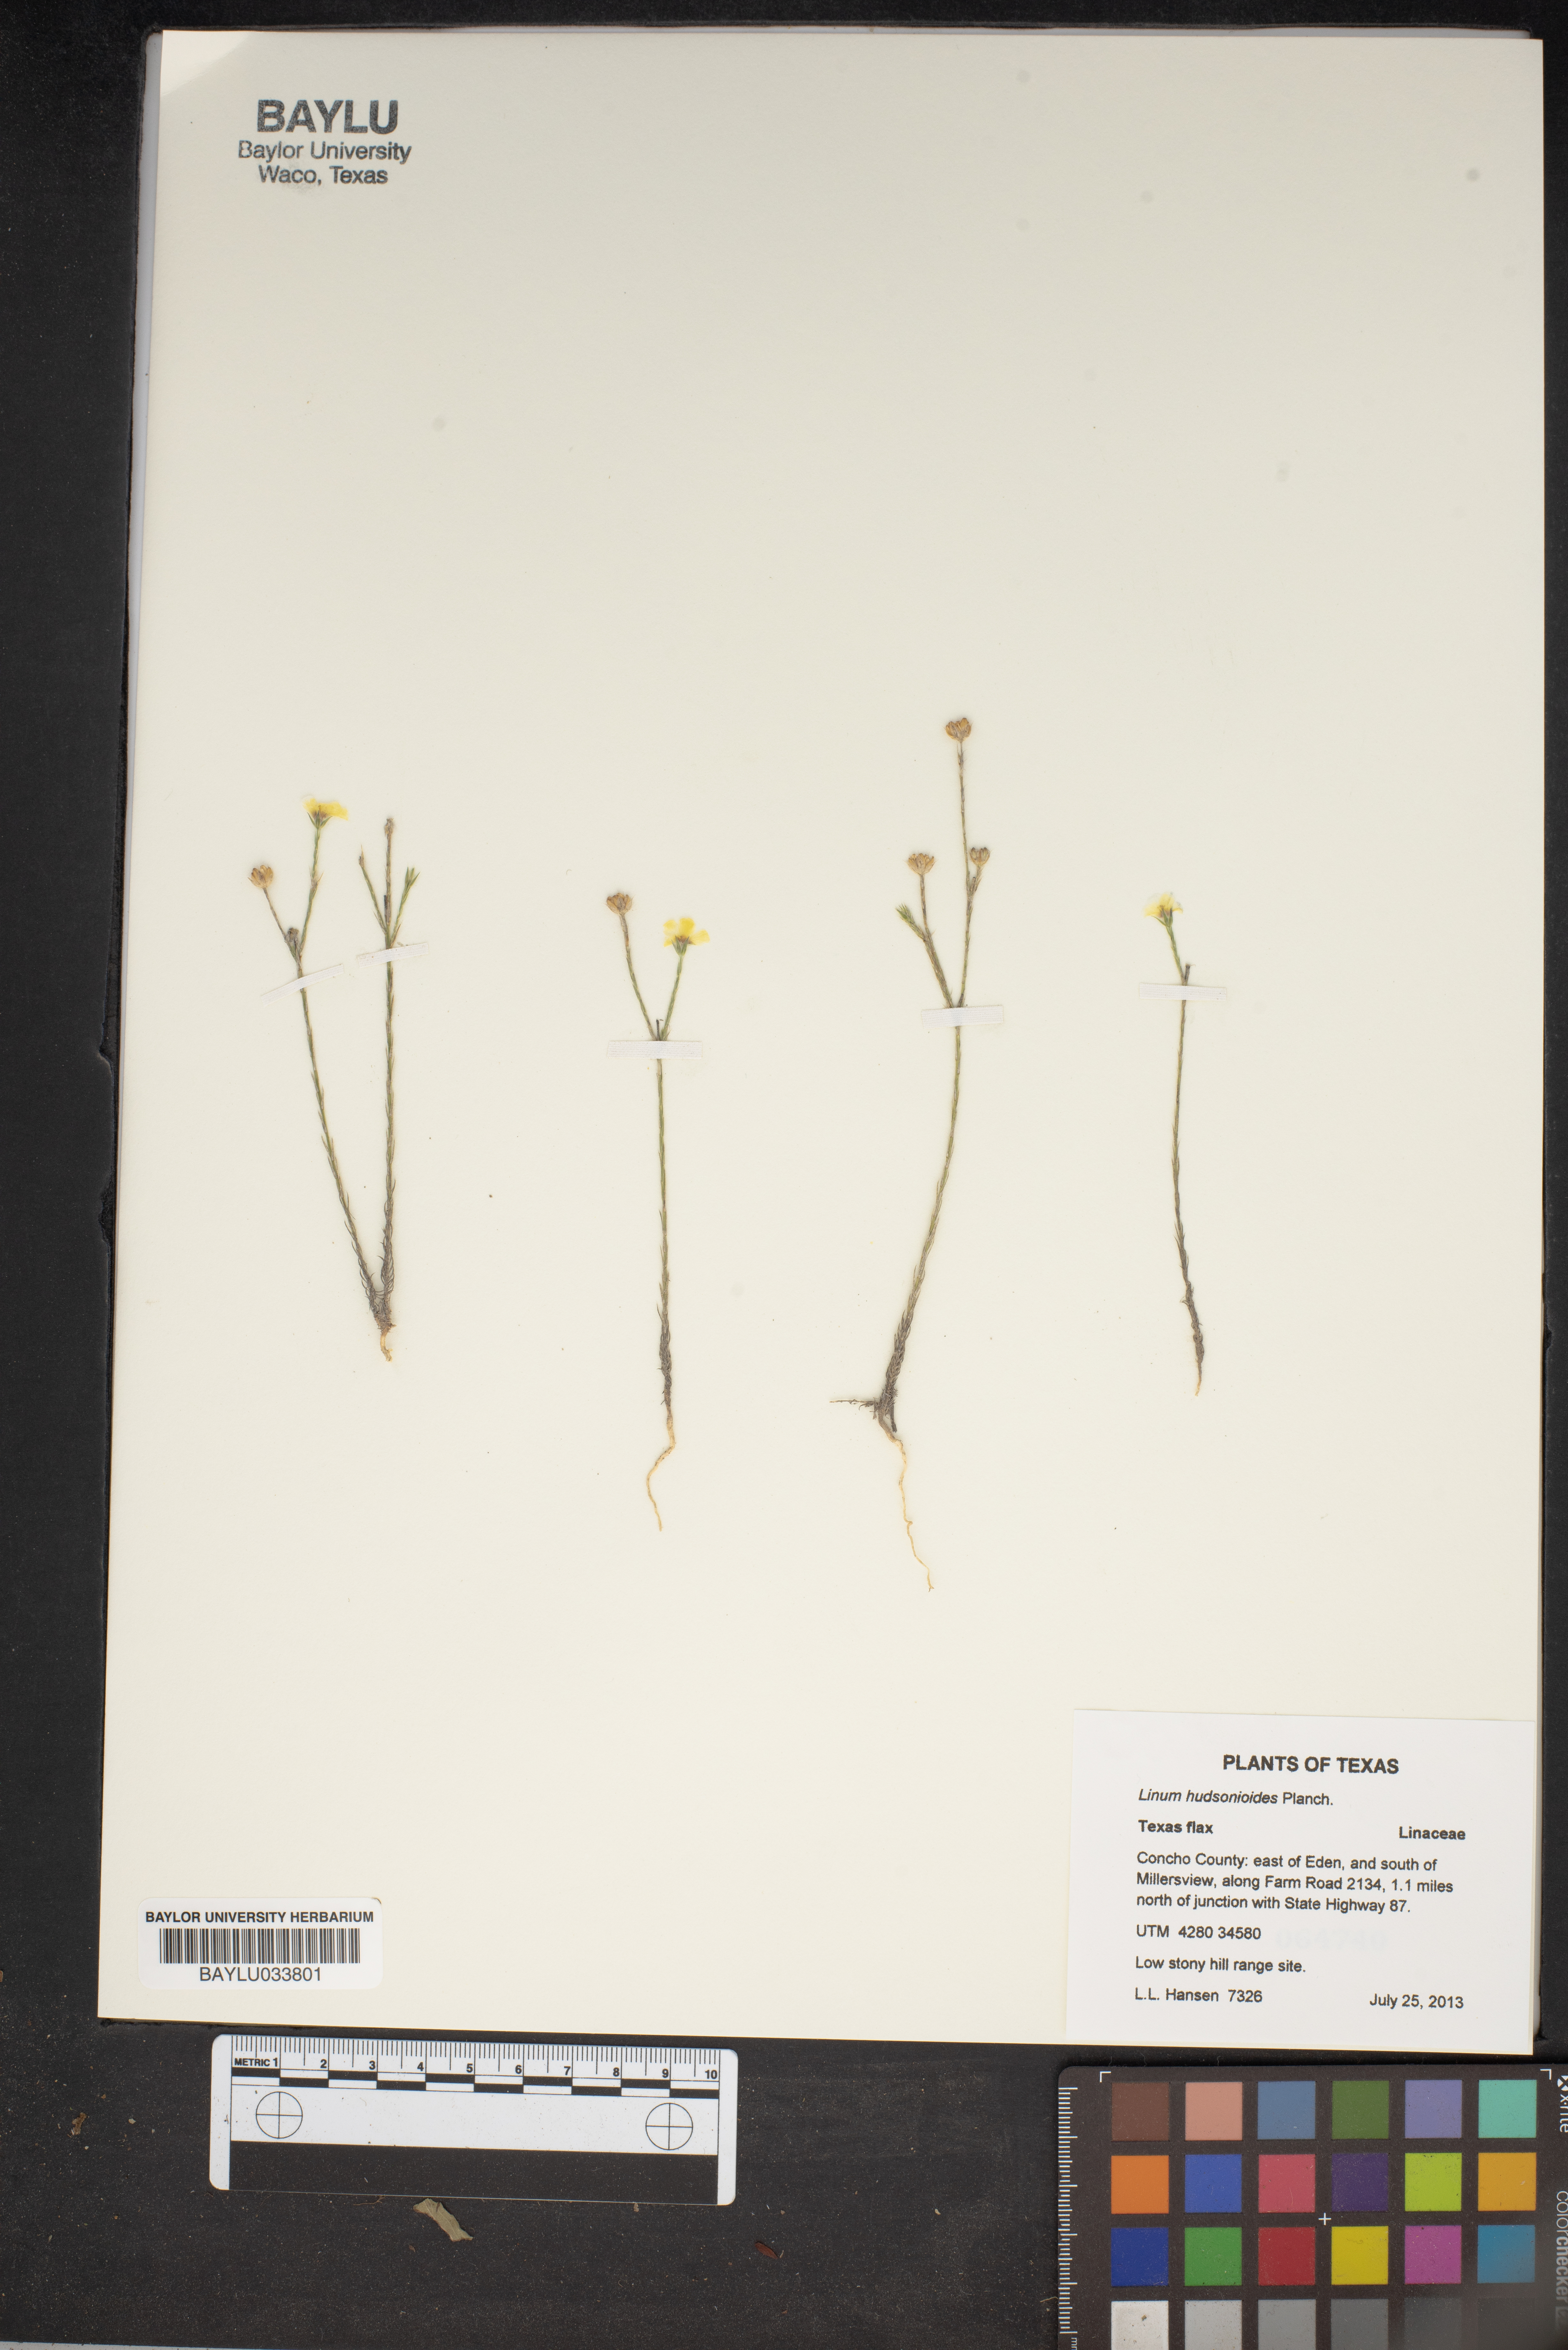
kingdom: Plantae
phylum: Tracheophyta
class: Magnoliopsida
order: Malpighiales
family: Linaceae
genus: Linum
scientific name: Linum hudsonioides
